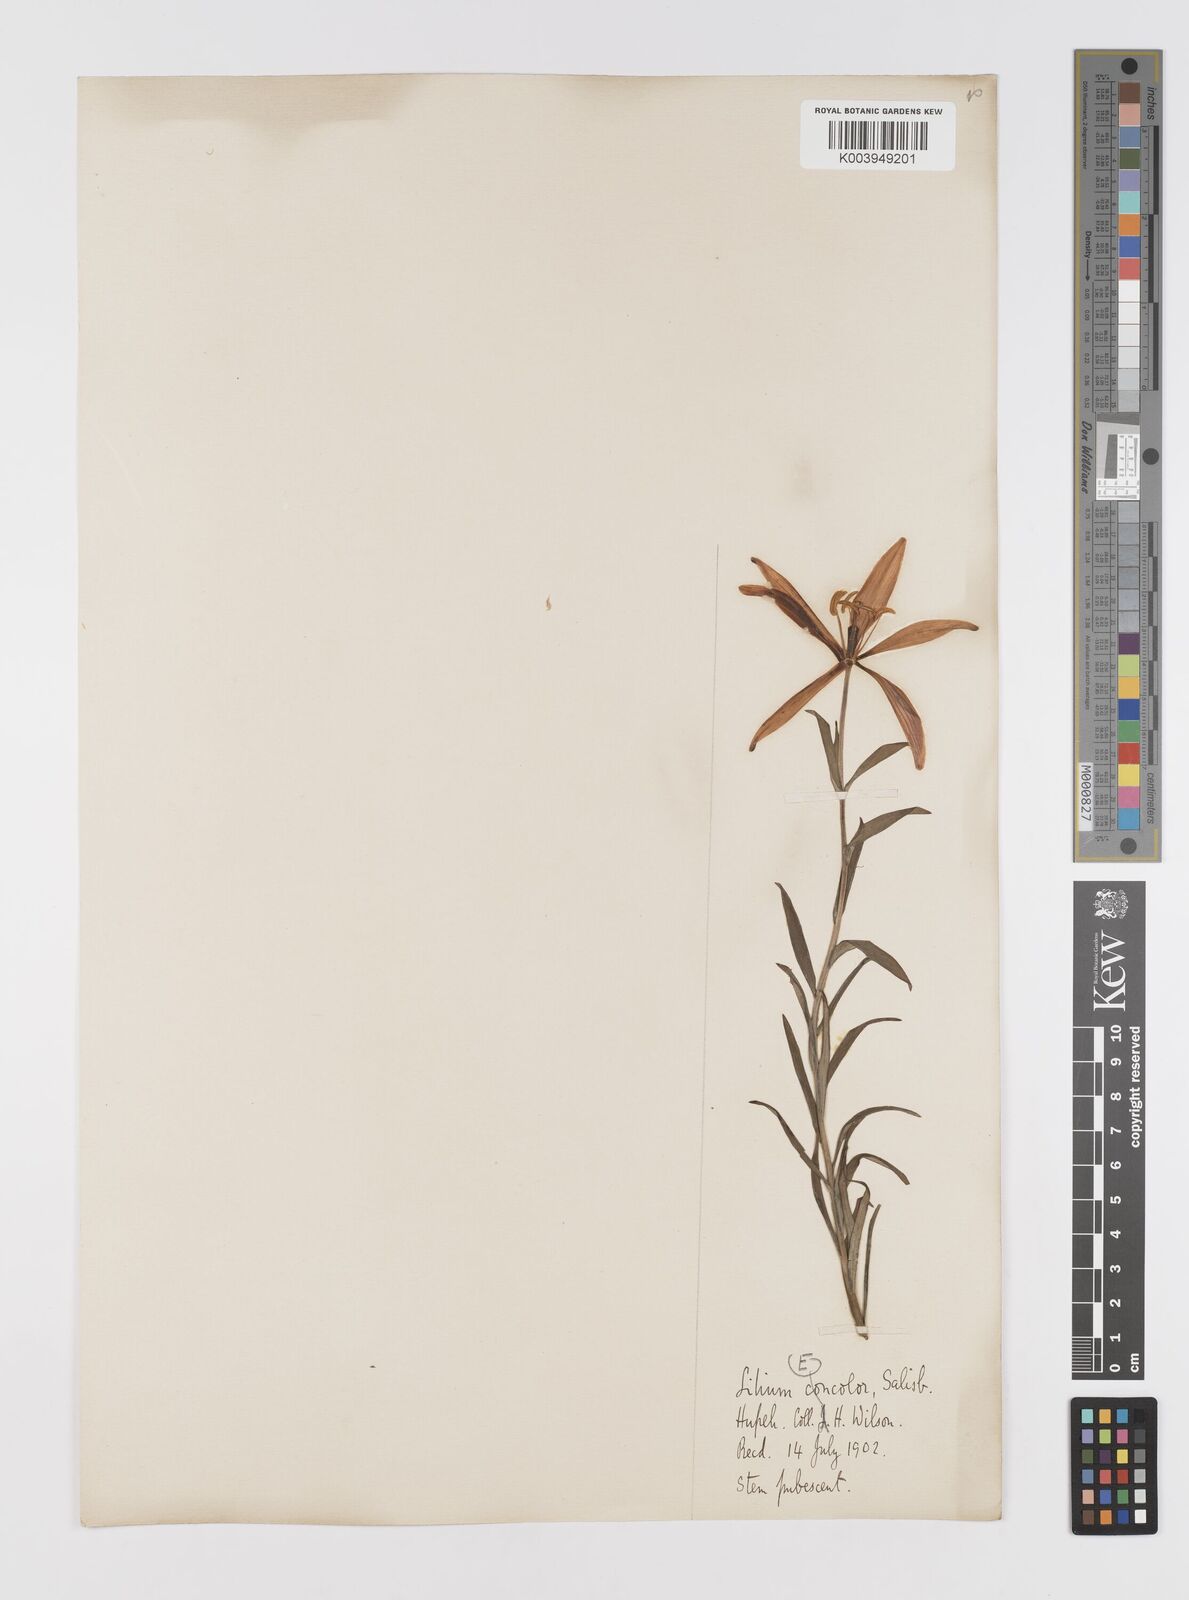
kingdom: Plantae
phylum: Tracheophyta
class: Liliopsida
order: Liliales
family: Liliaceae
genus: Lilium
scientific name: Lilium concolor
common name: Morning-star lily
